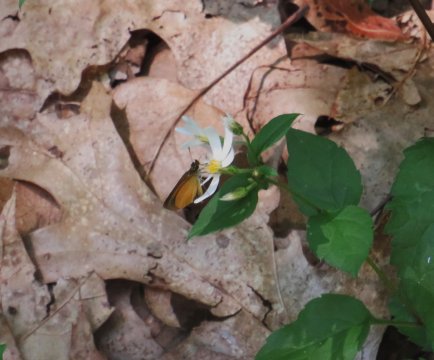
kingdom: Animalia
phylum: Arthropoda
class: Insecta
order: Lepidoptera
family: Hesperiidae
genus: Ancyloxypha
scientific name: Ancyloxypha numitor
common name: Least Skipper
